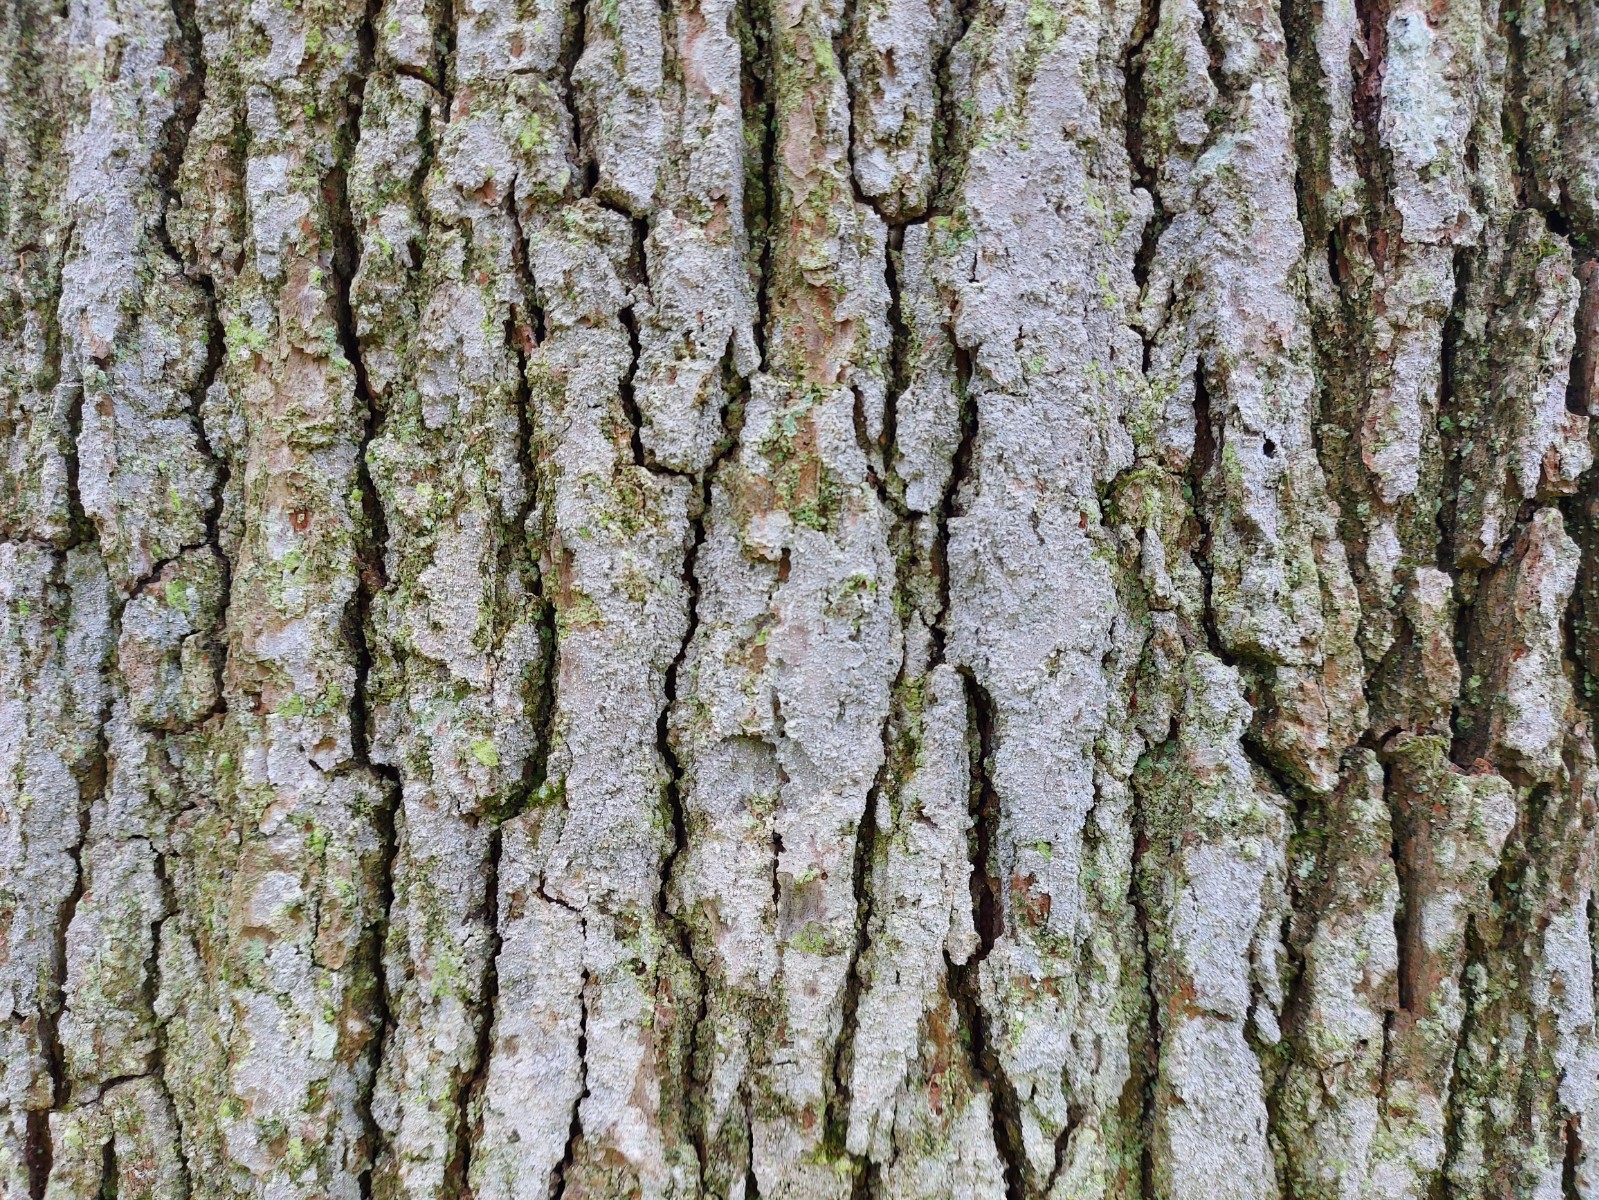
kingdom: Fungi
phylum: Ascomycota
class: Arthoniomycetes
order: Arthoniales
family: Roccellaceae
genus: Lecanactis
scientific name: Lecanactis abietina
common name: grå dugskivelav
